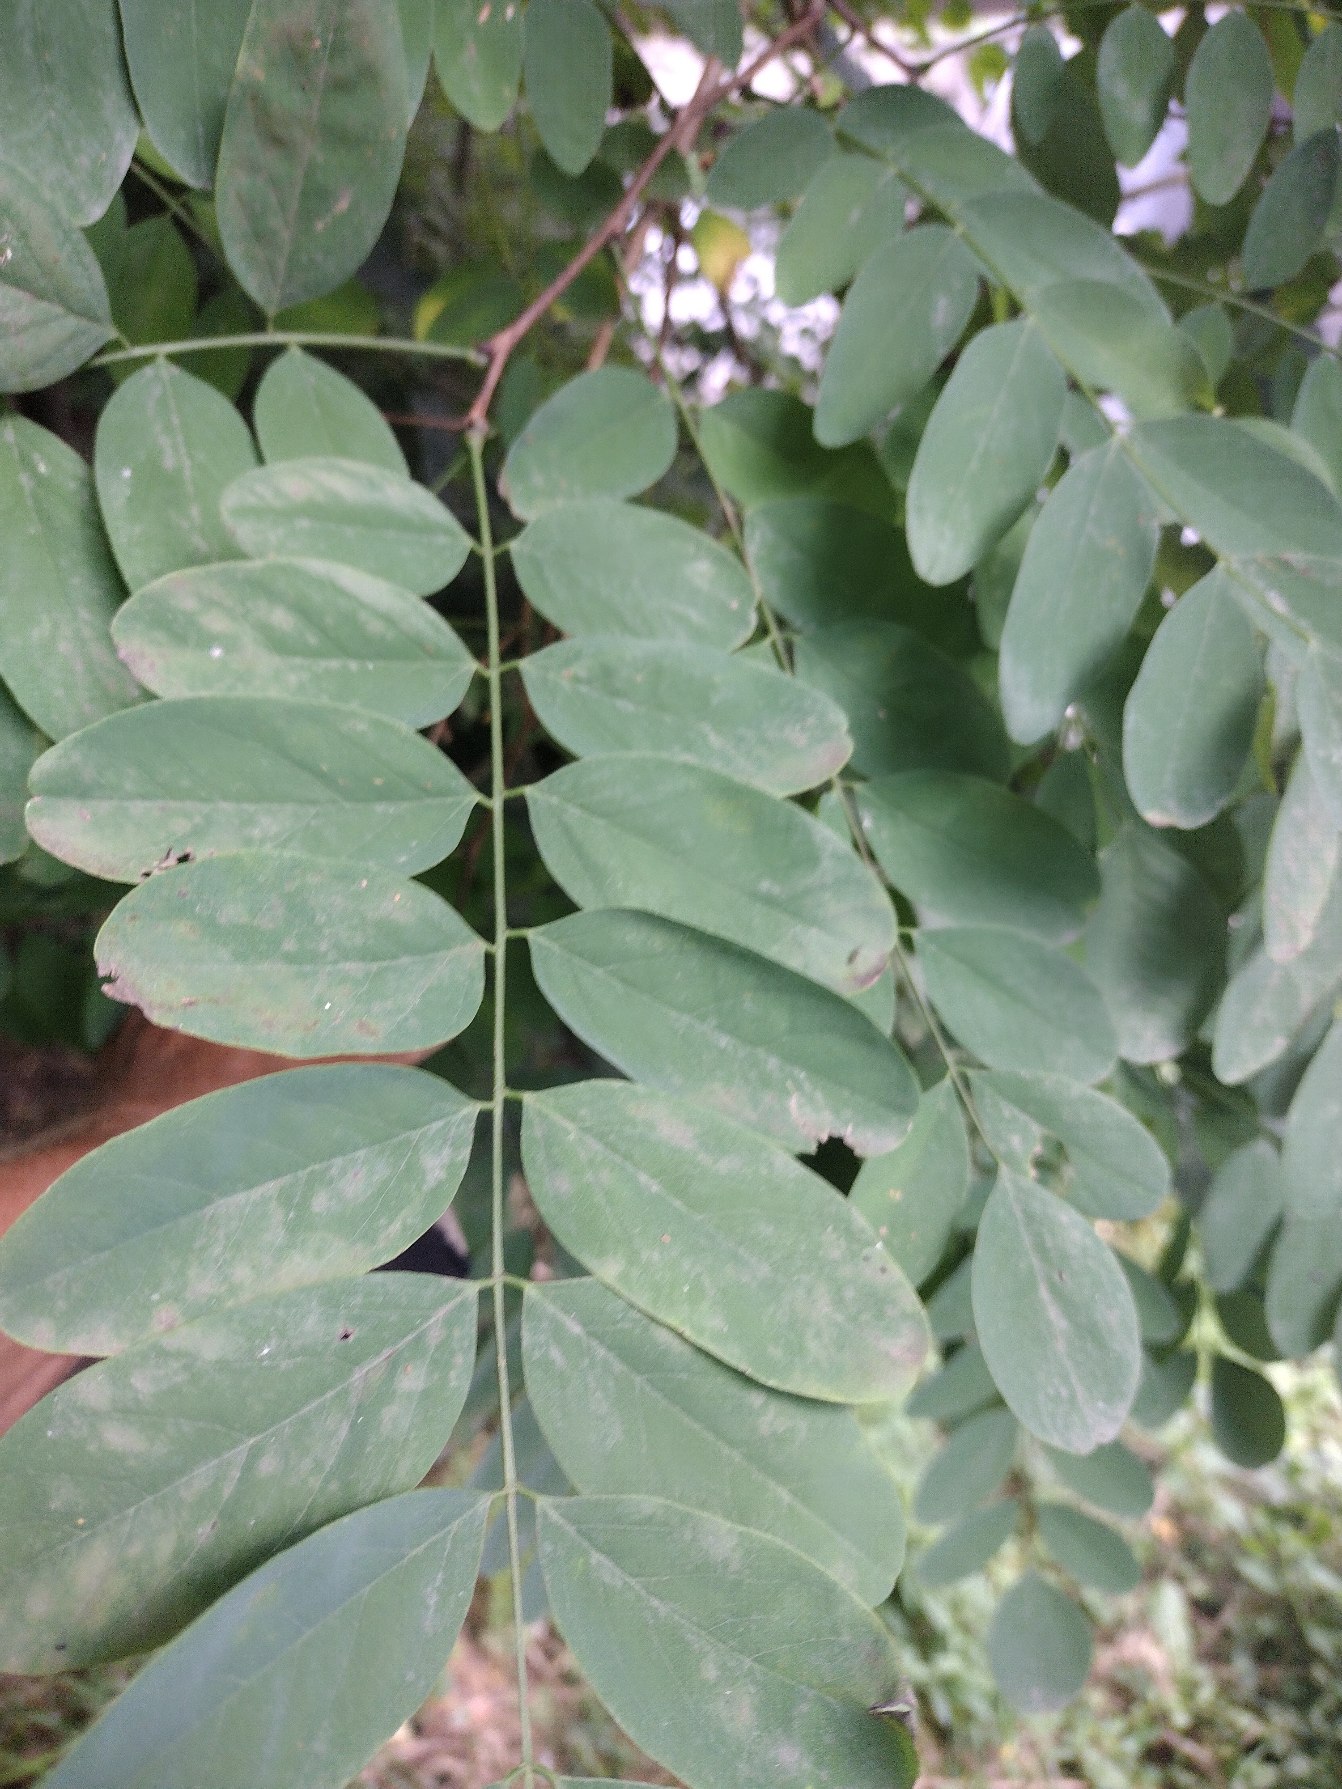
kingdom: Plantae
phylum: Tracheophyta
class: Magnoliopsida
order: Fabales
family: Fabaceae
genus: Robinia
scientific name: Robinia pseudoacacia
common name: Robinie
